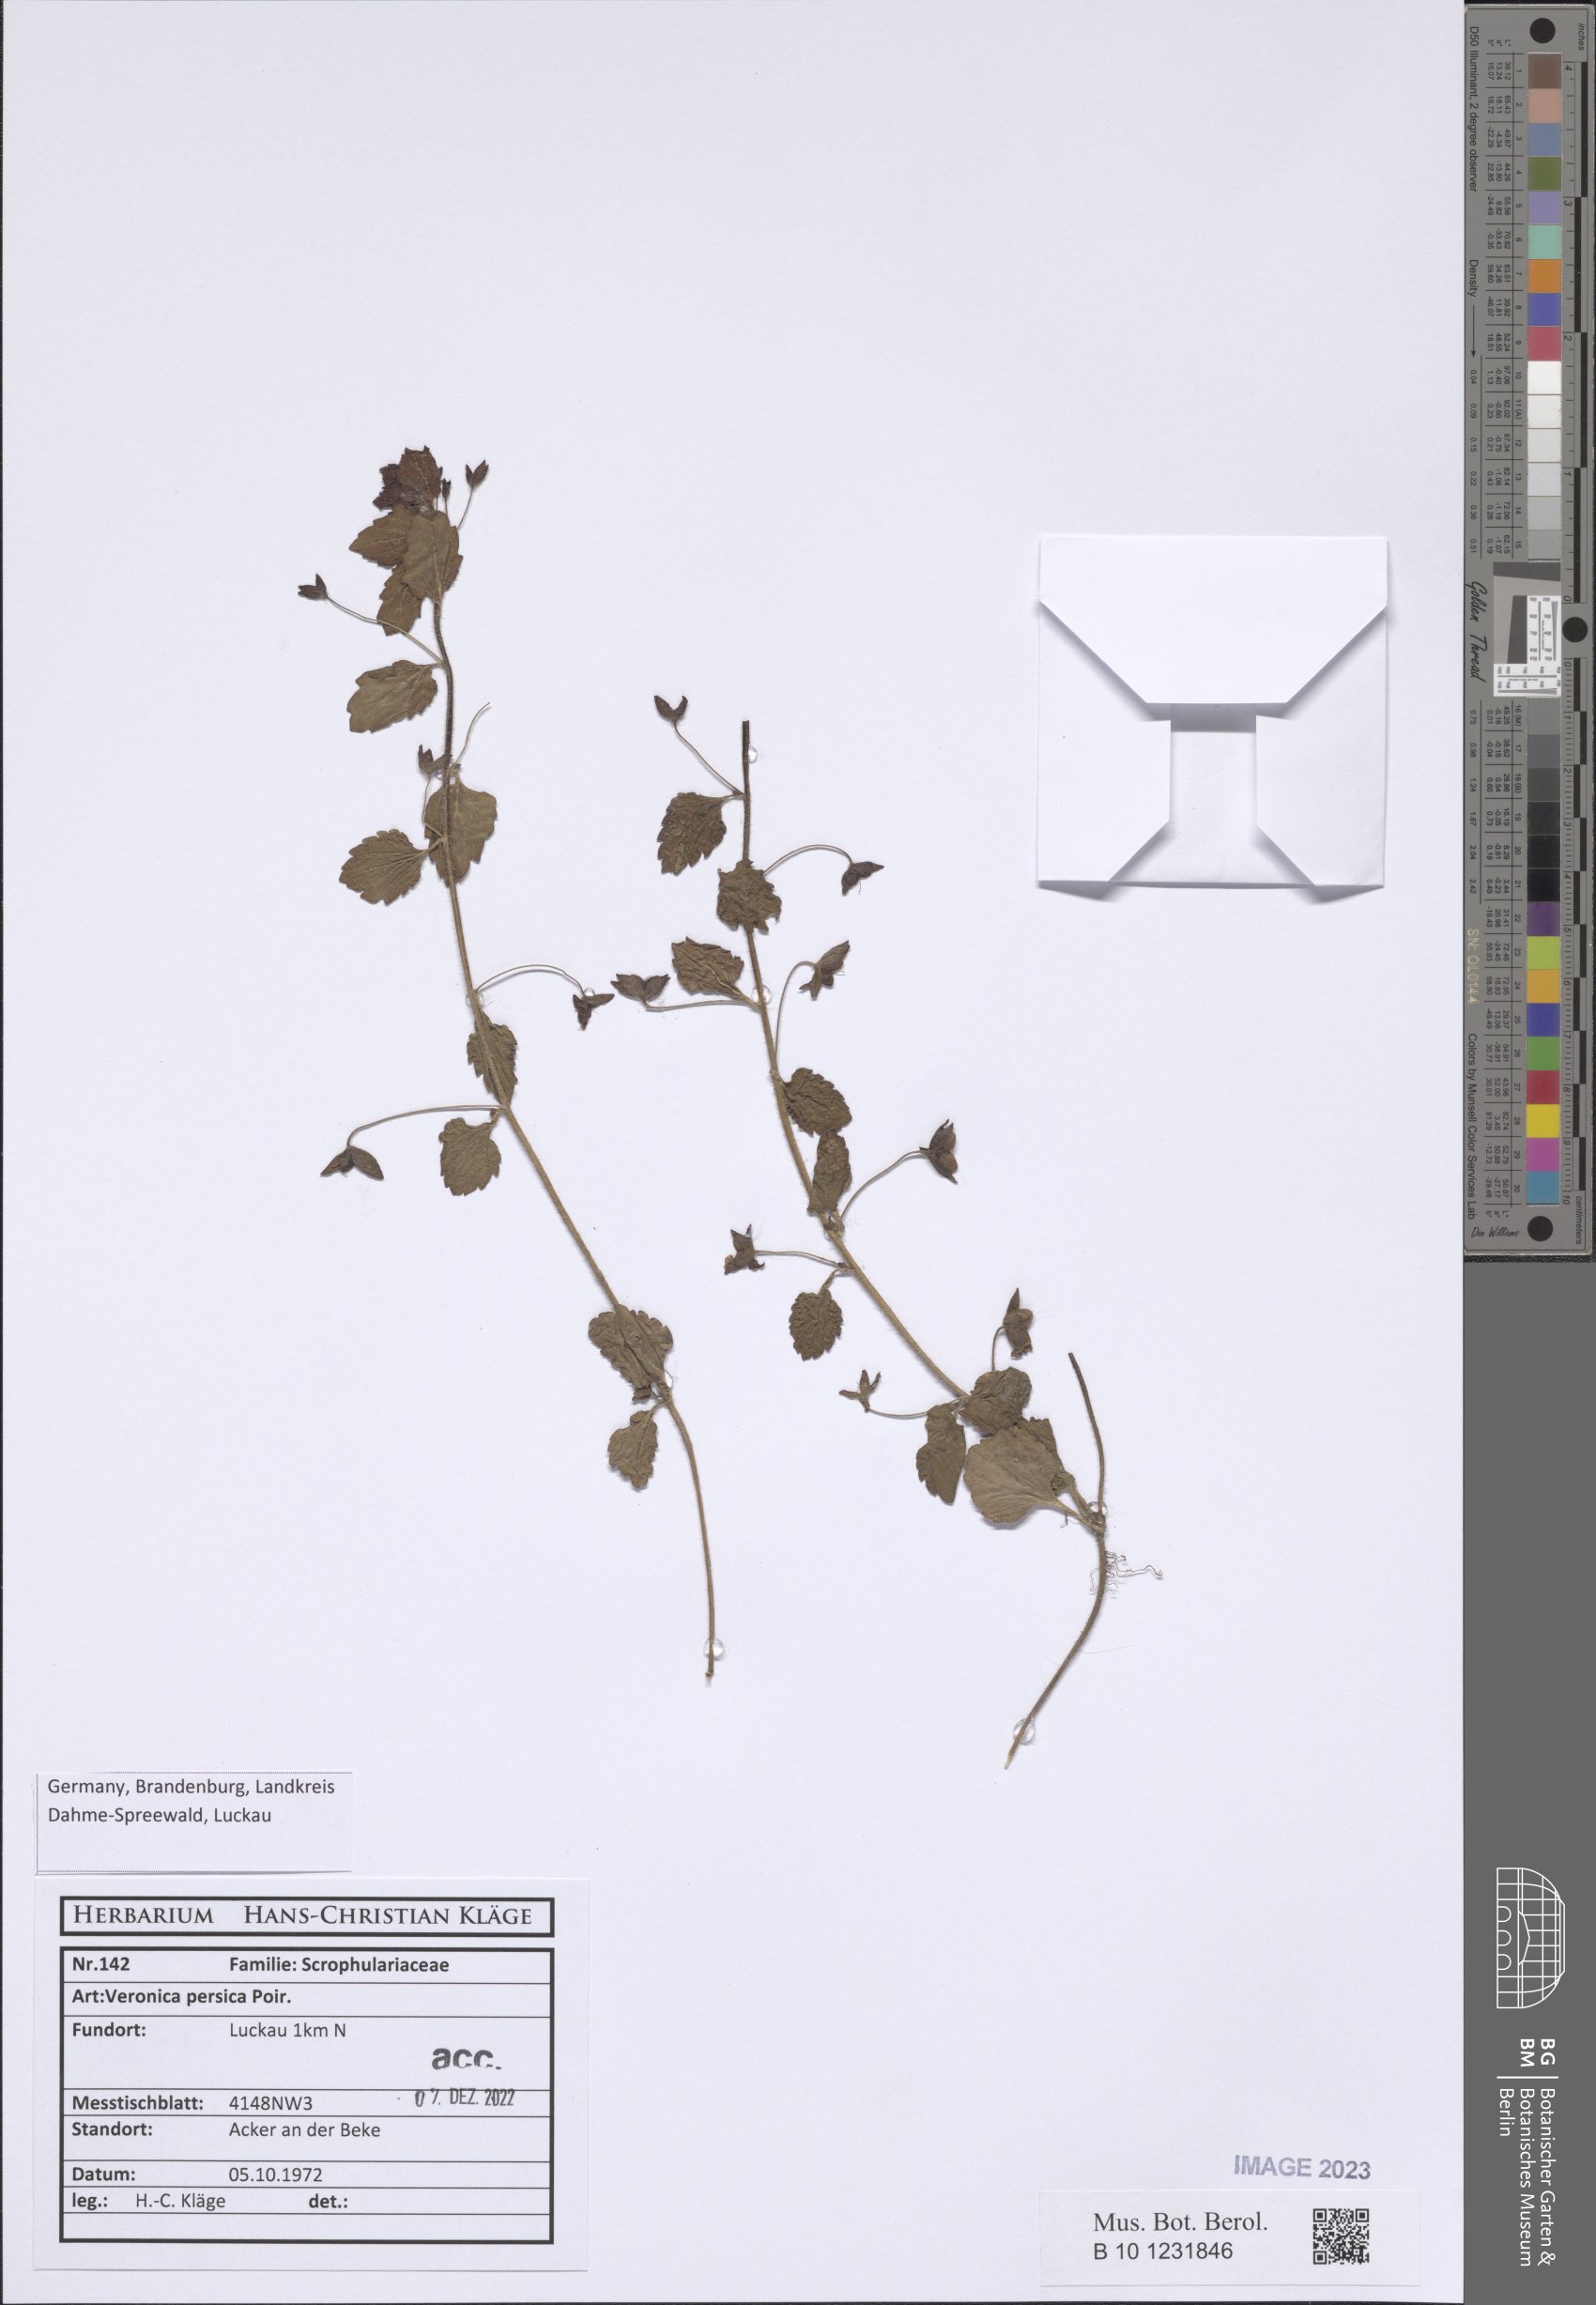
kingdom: Plantae
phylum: Tracheophyta
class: Magnoliopsida
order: Lamiales
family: Plantaginaceae
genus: Veronica
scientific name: Veronica persica
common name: Common field-speedwell
